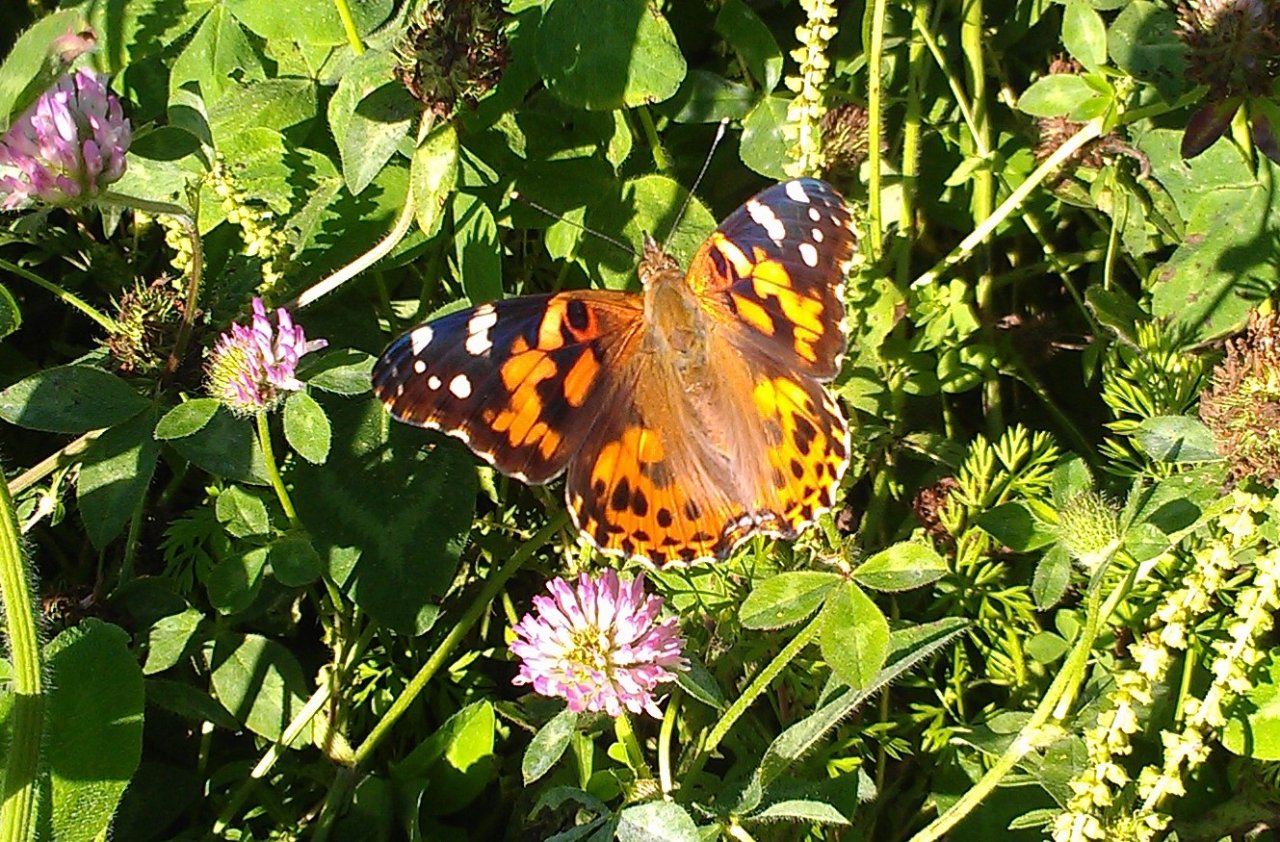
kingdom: Animalia
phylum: Arthropoda
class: Insecta
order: Lepidoptera
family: Nymphalidae
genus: Vanessa
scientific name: Vanessa cardui
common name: Painted Lady
